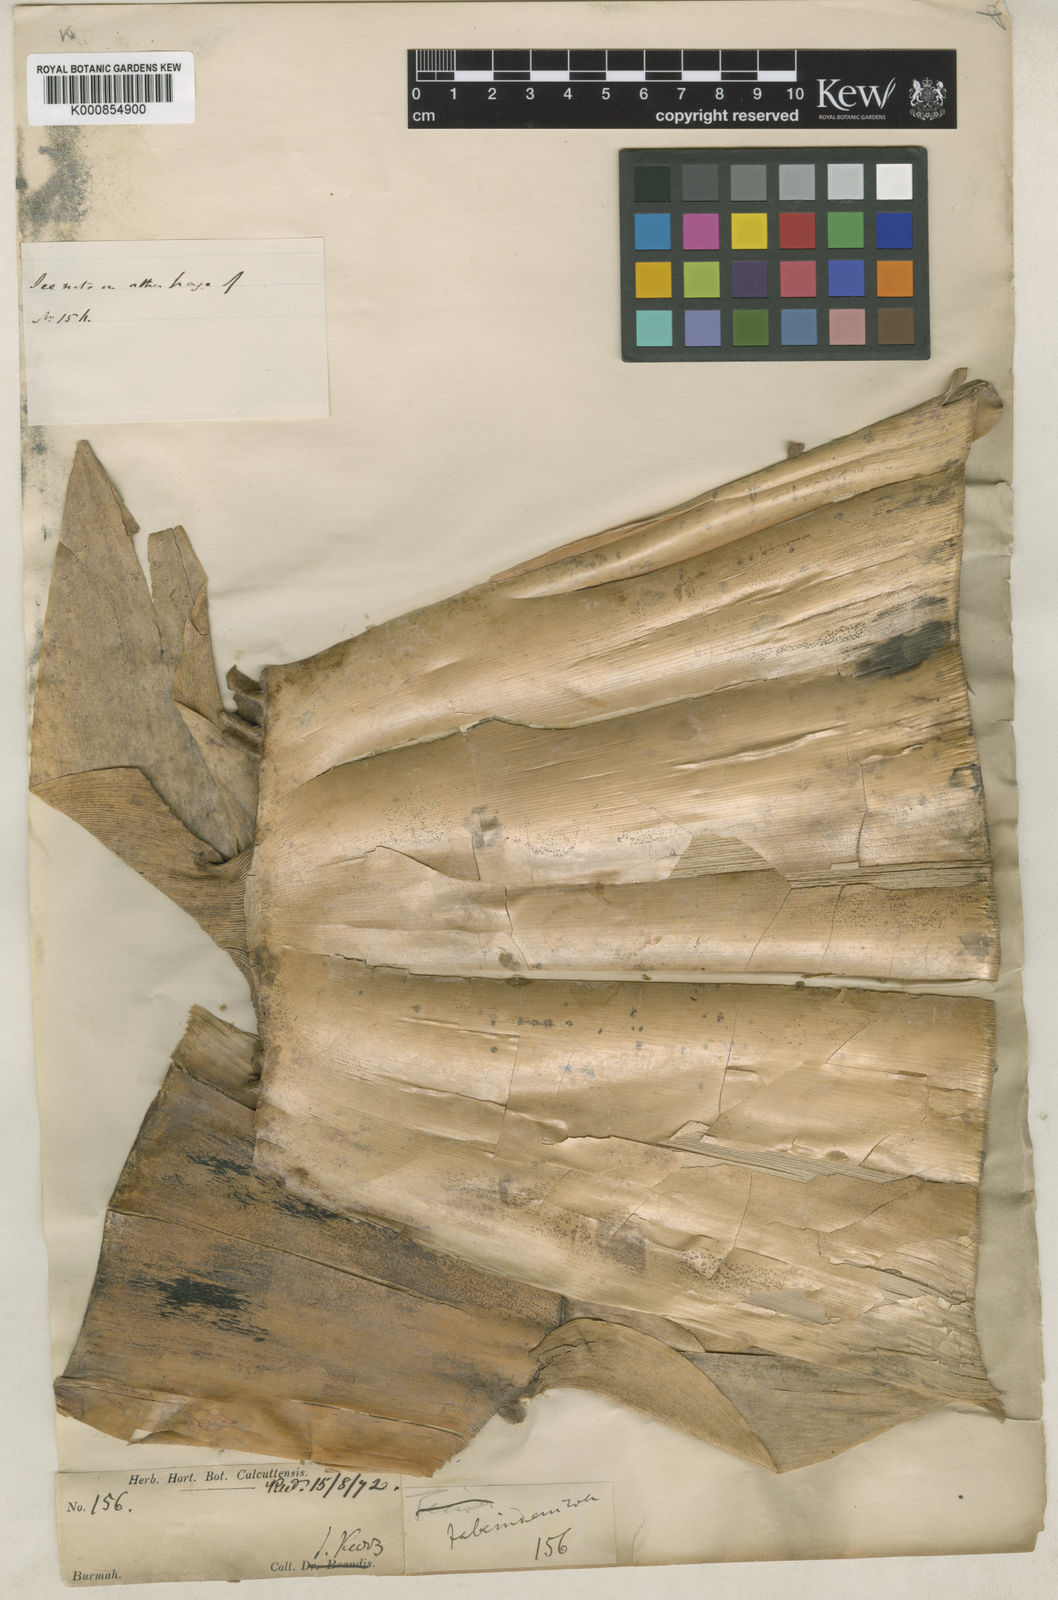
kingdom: Plantae
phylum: Tracheophyta
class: Liliopsida
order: Poales
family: Poaceae
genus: Gigantochloa
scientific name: Gigantochloa macrostachya
